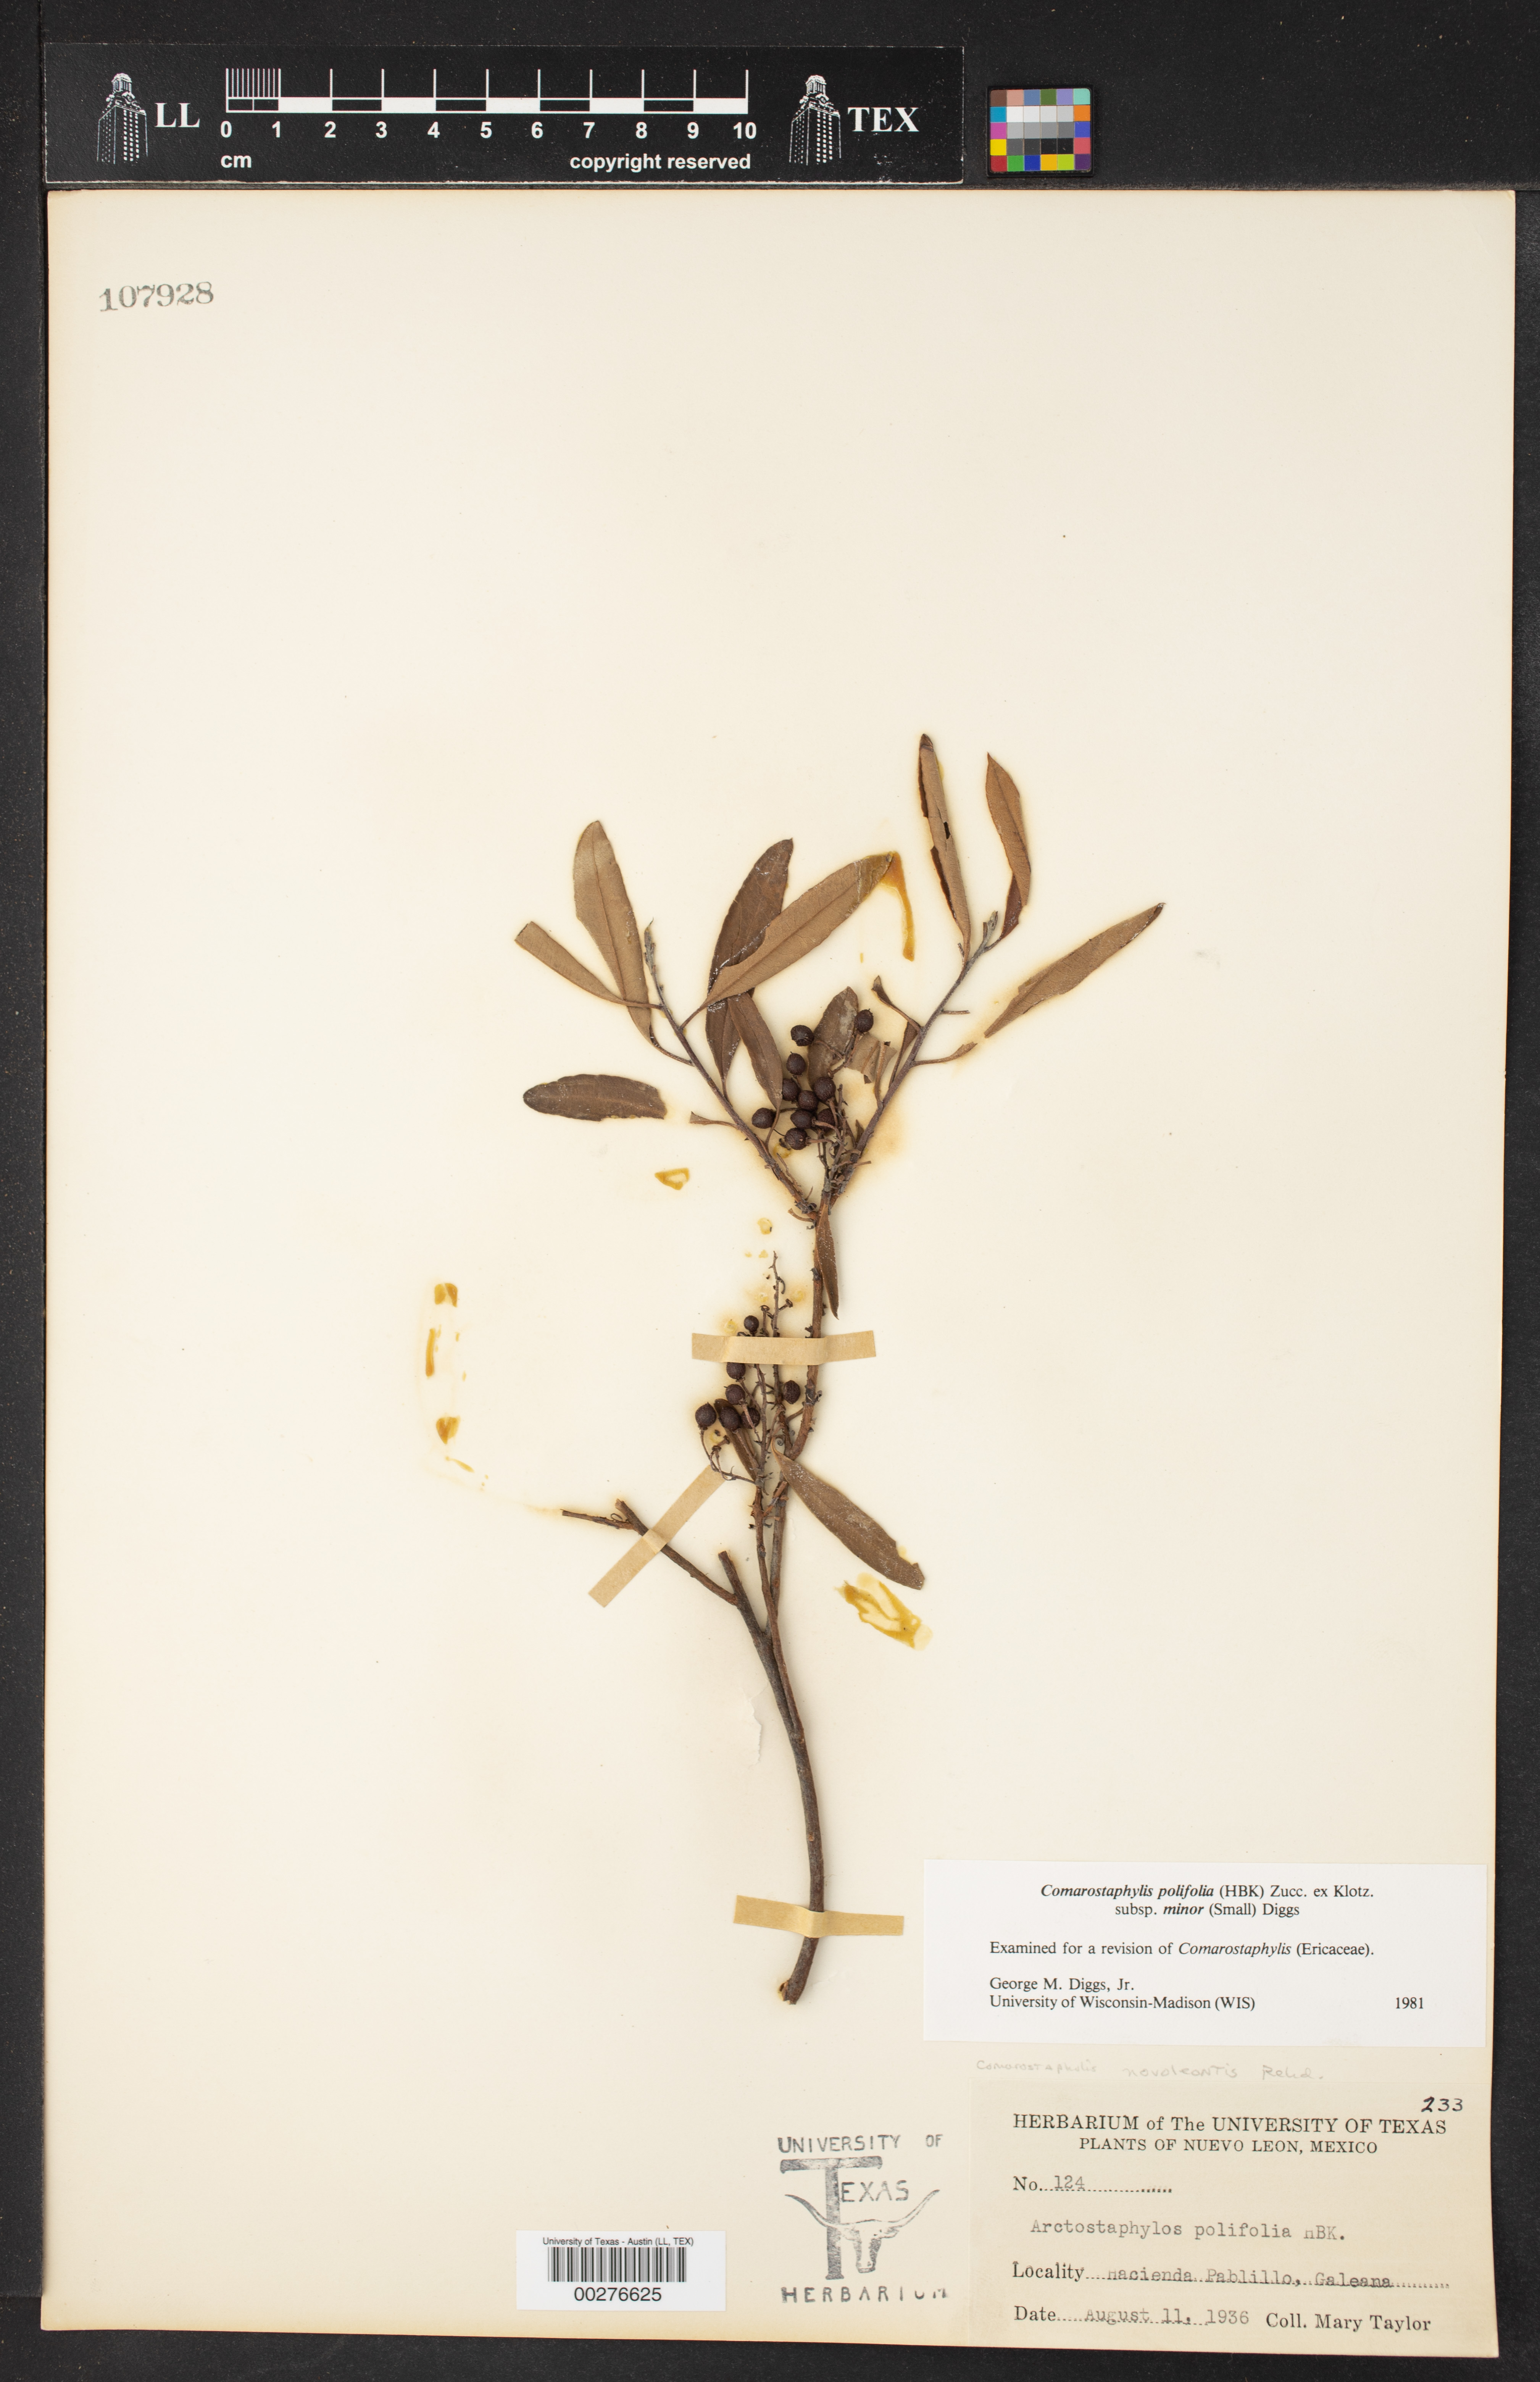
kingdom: Plantae
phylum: Tracheophyta
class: Magnoliopsida
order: Ericales
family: Ericaceae
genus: Comarostaphylis
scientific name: Comarostaphylis polifolia
